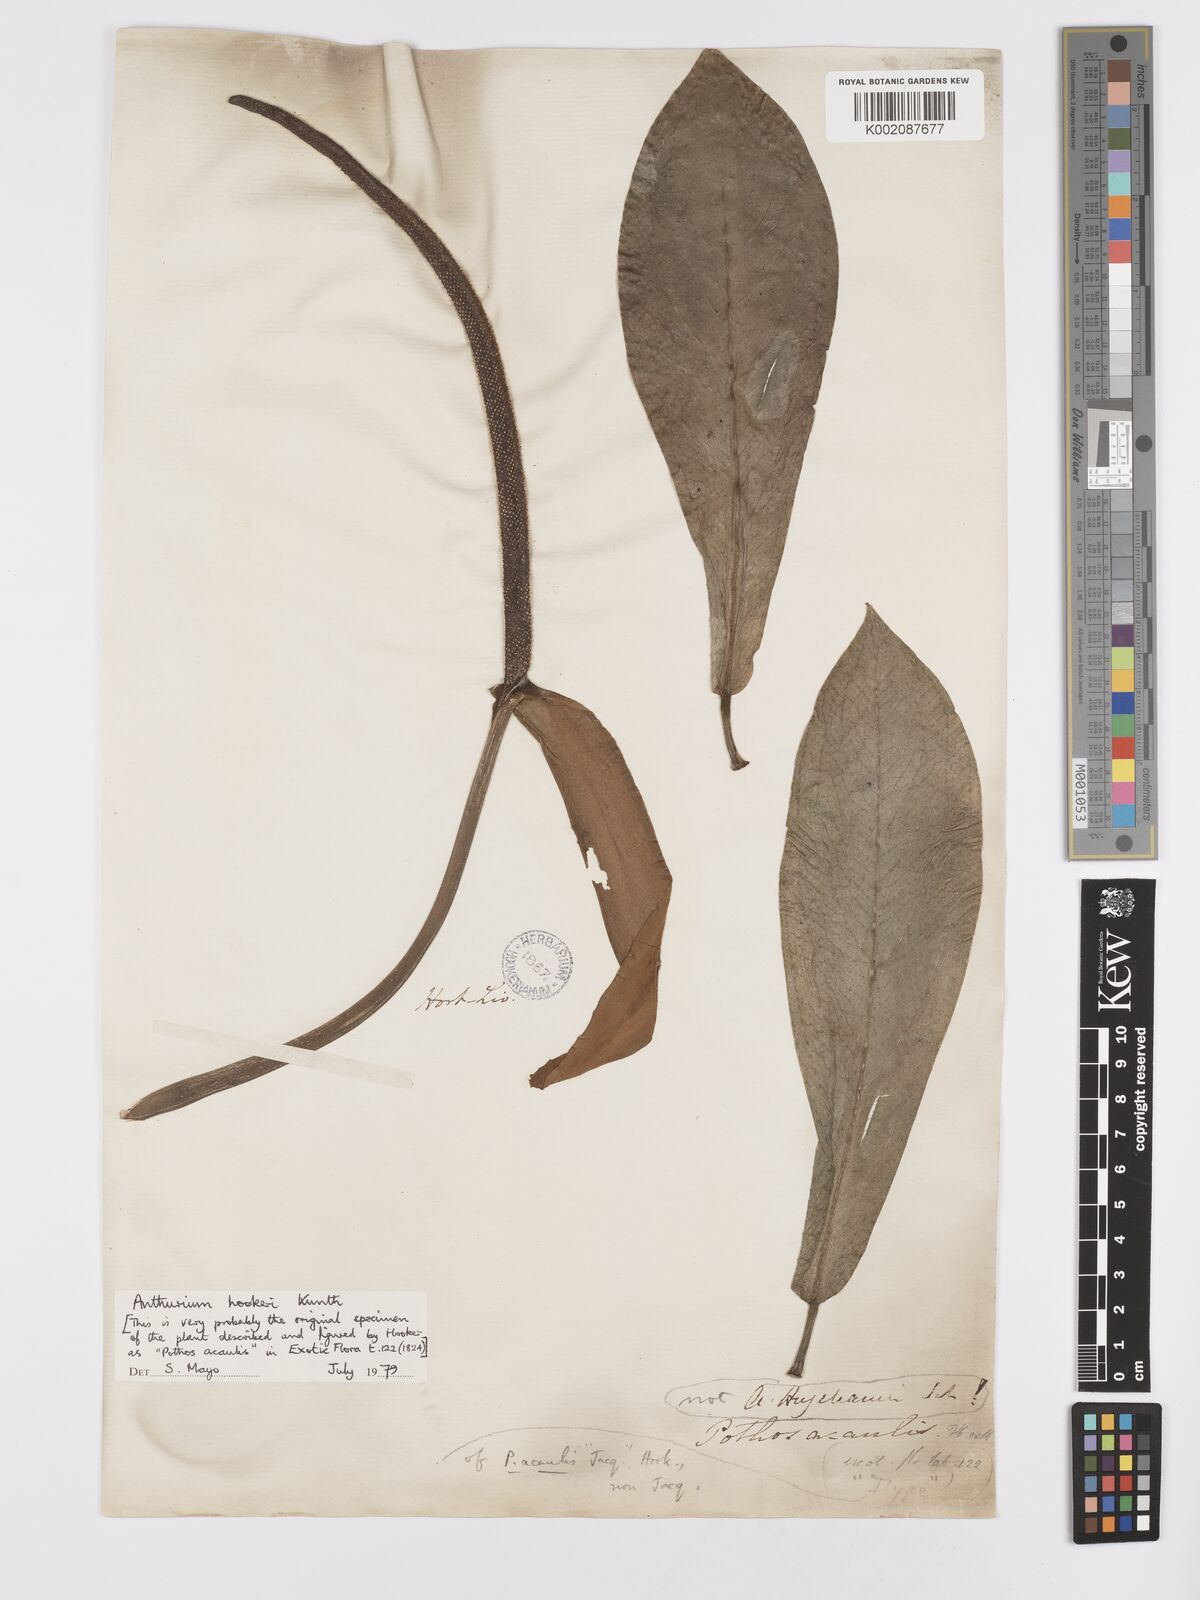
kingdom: Plantae
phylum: Tracheophyta
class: Liliopsida
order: Alismatales
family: Araceae
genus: Anthurium
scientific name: Anthurium hookeri
